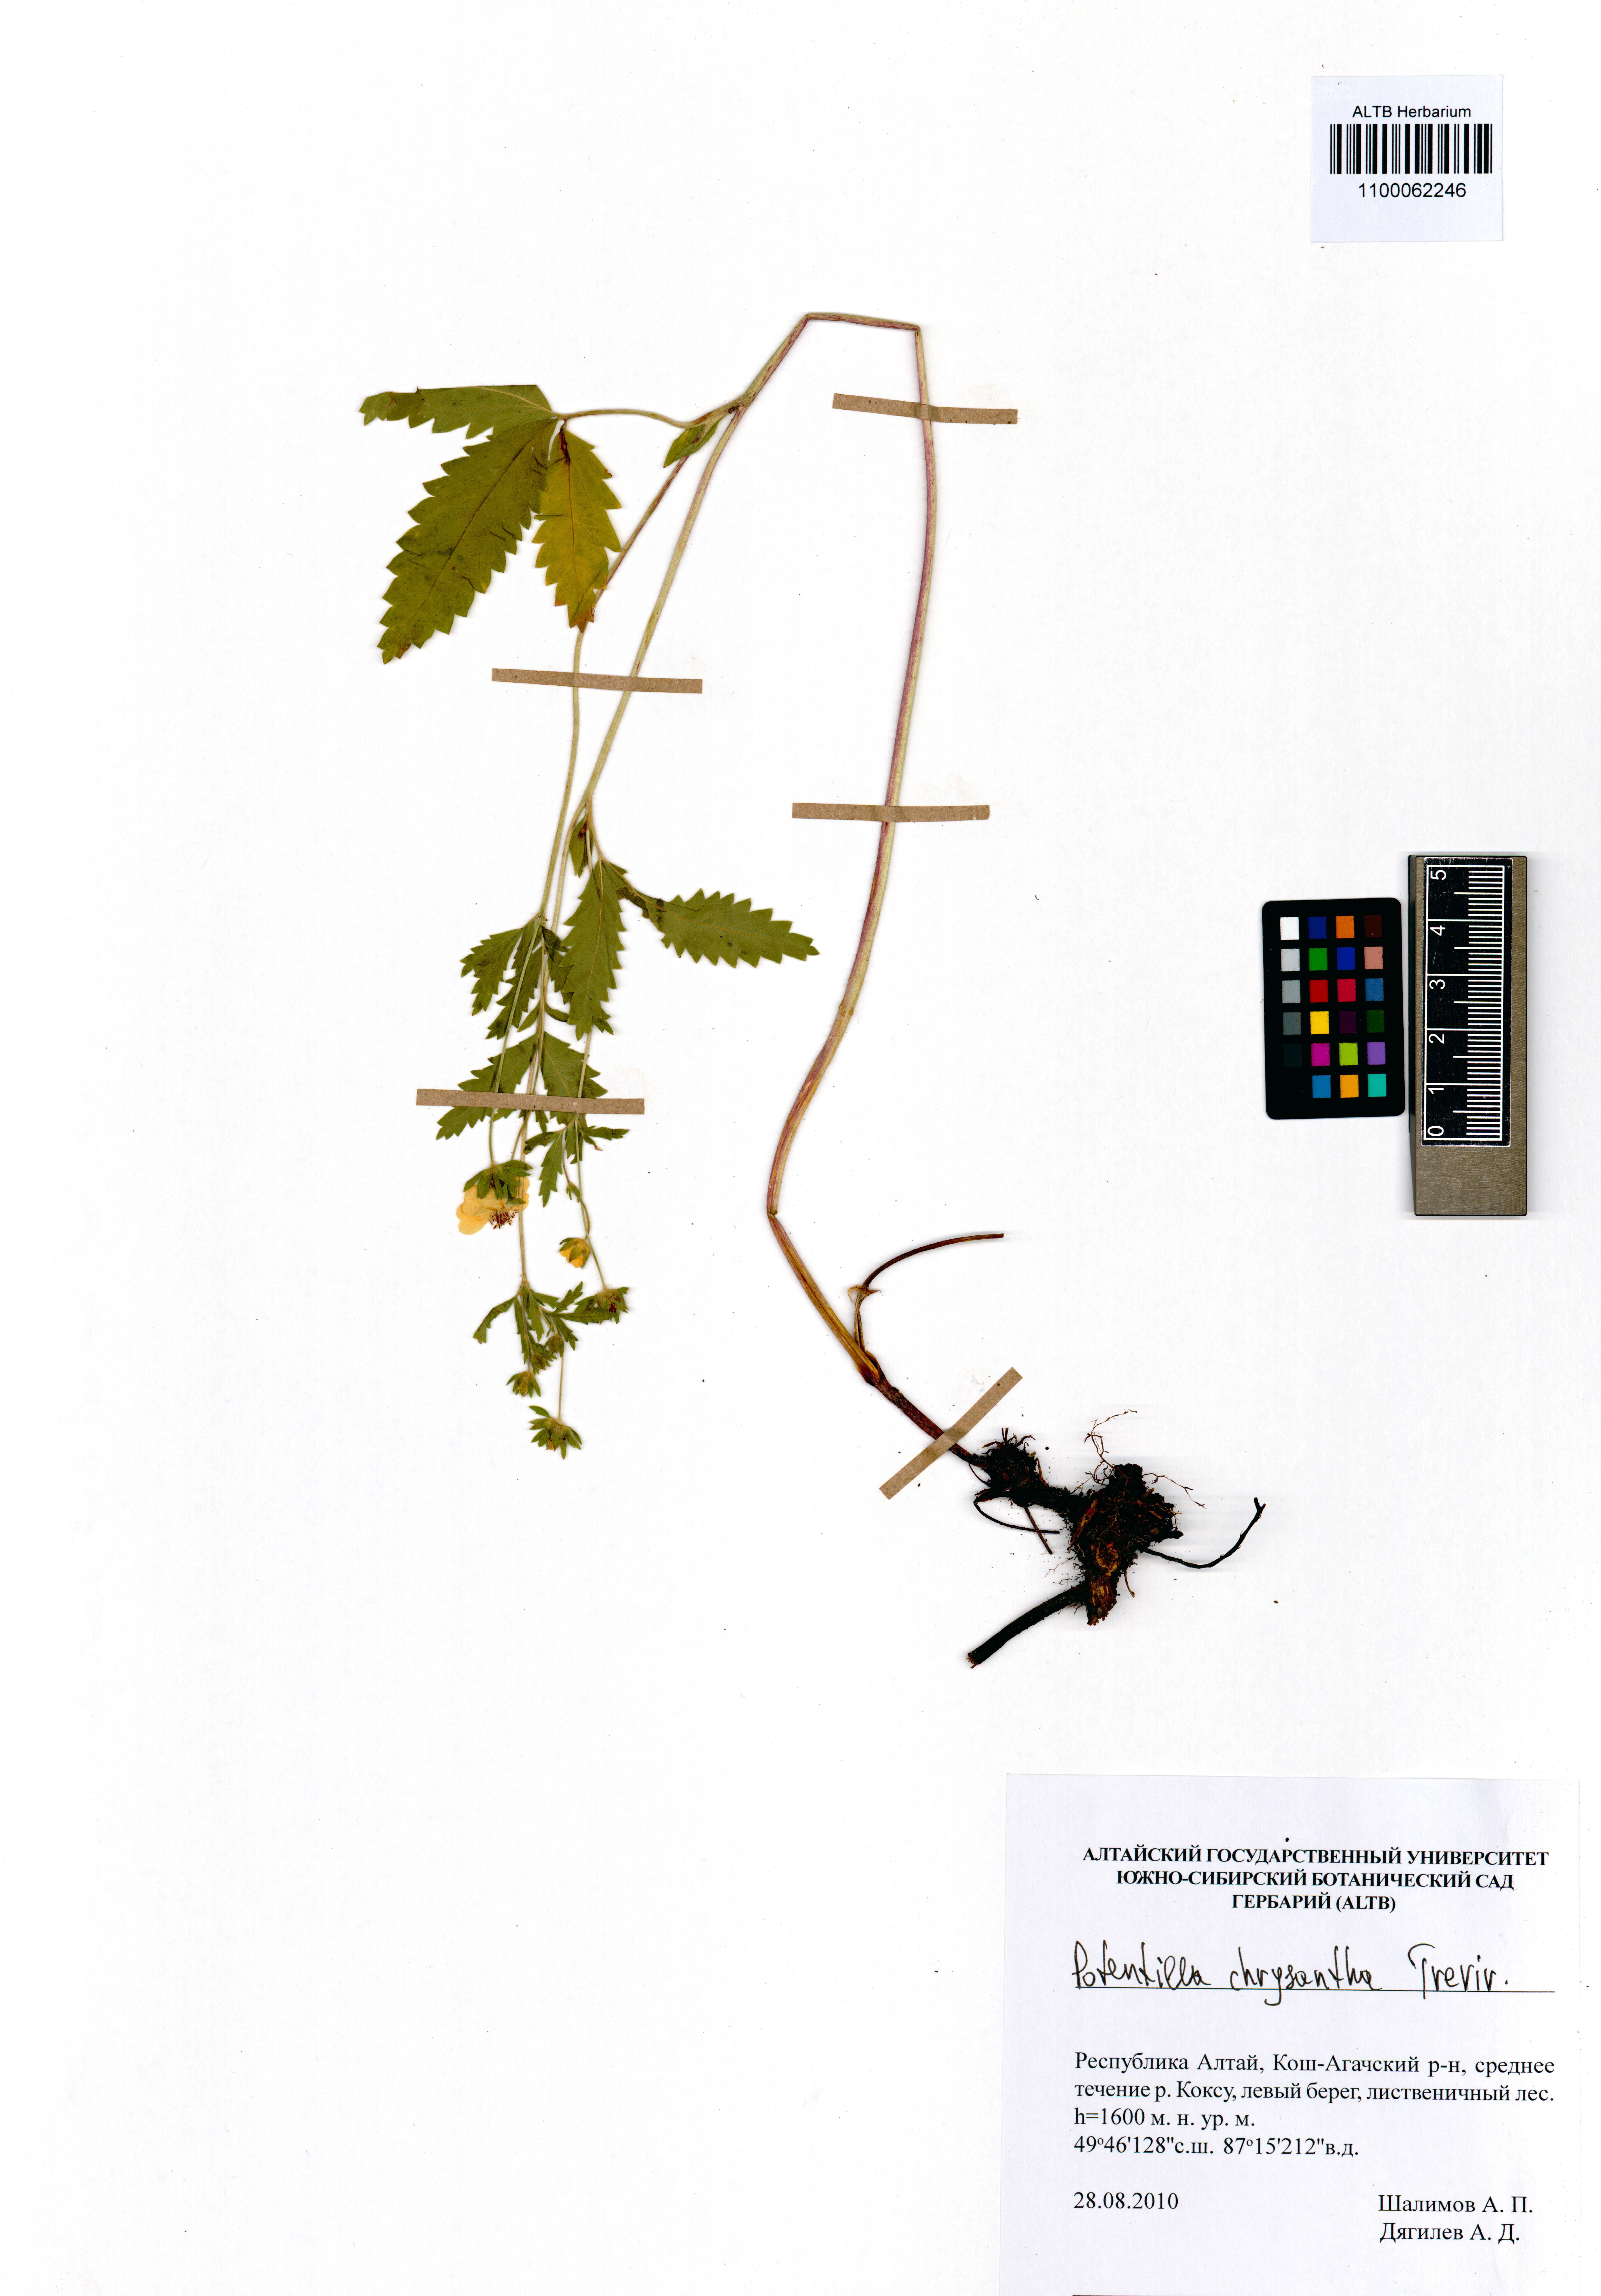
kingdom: Plantae
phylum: Tracheophyta
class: Magnoliopsida
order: Rosales
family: Rosaceae
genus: Potentilla
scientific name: Potentilla chrysantha
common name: Thuringian cinquefoil
